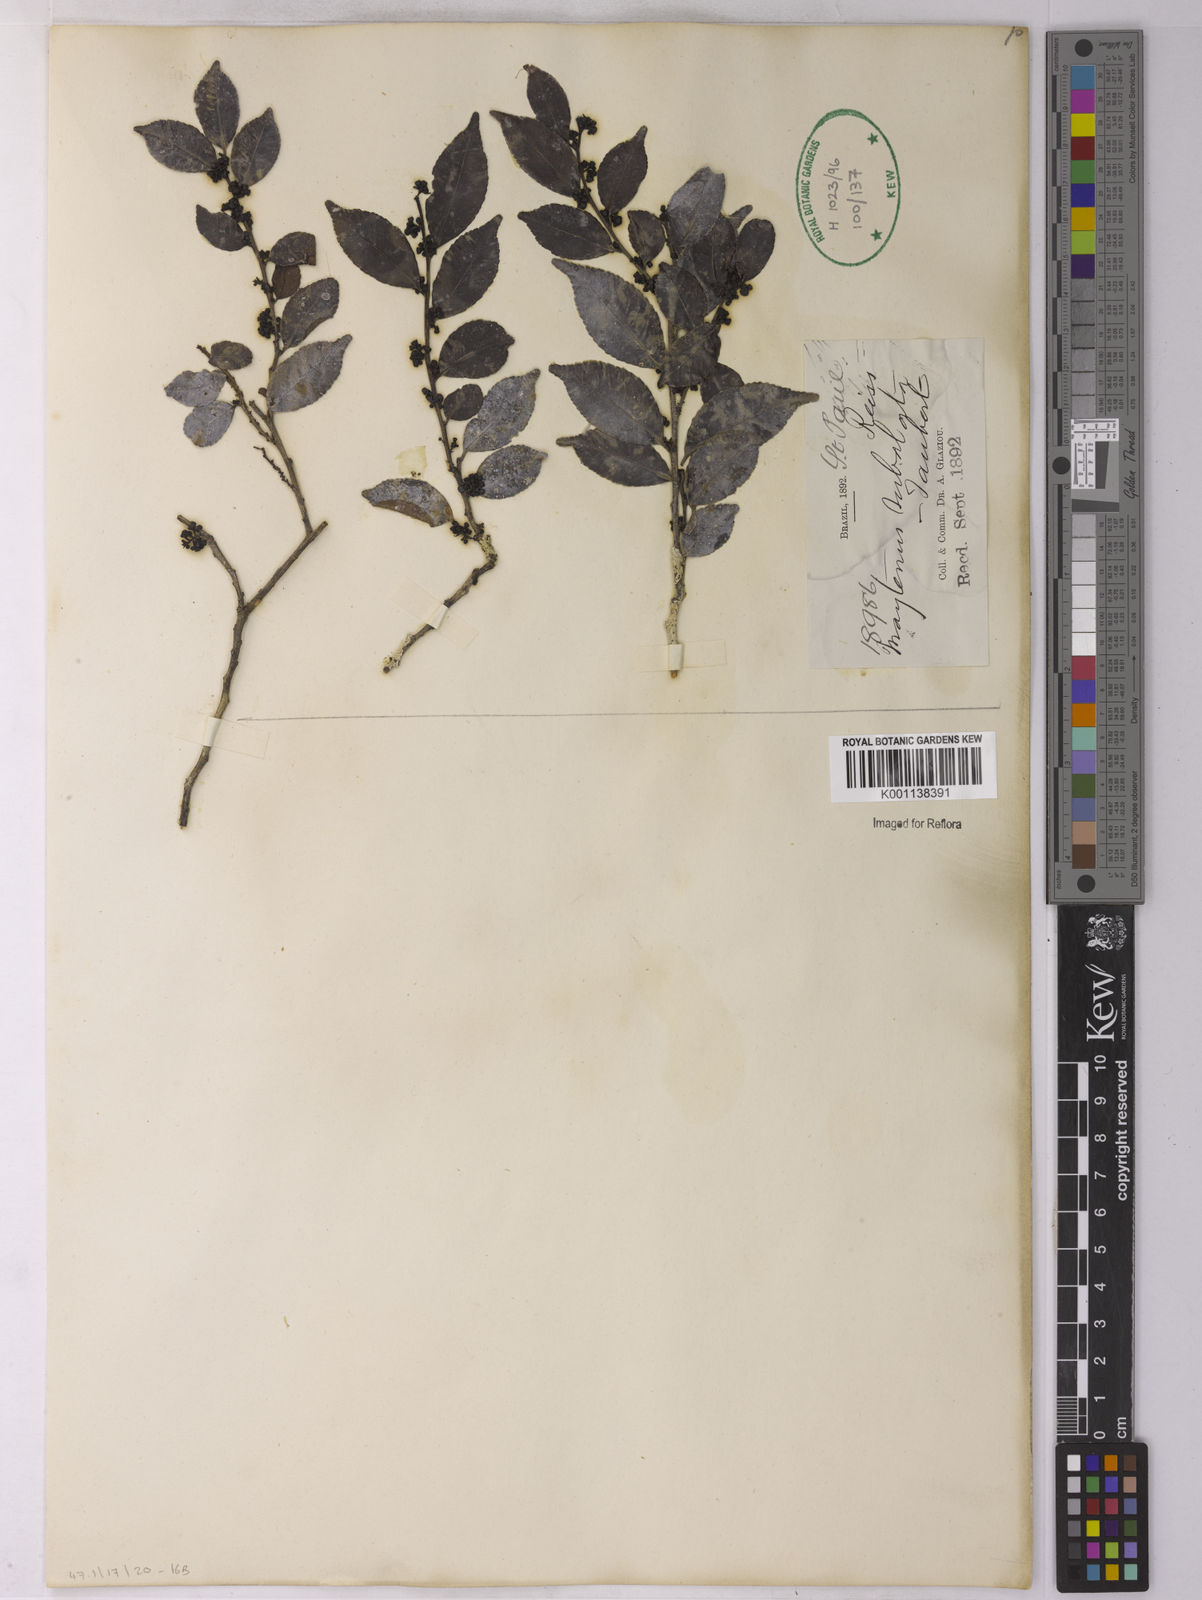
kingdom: Plantae
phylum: Tracheophyta
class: Magnoliopsida
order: Celastrales
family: Celastraceae
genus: Monteverdia
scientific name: Monteverdia subalata
